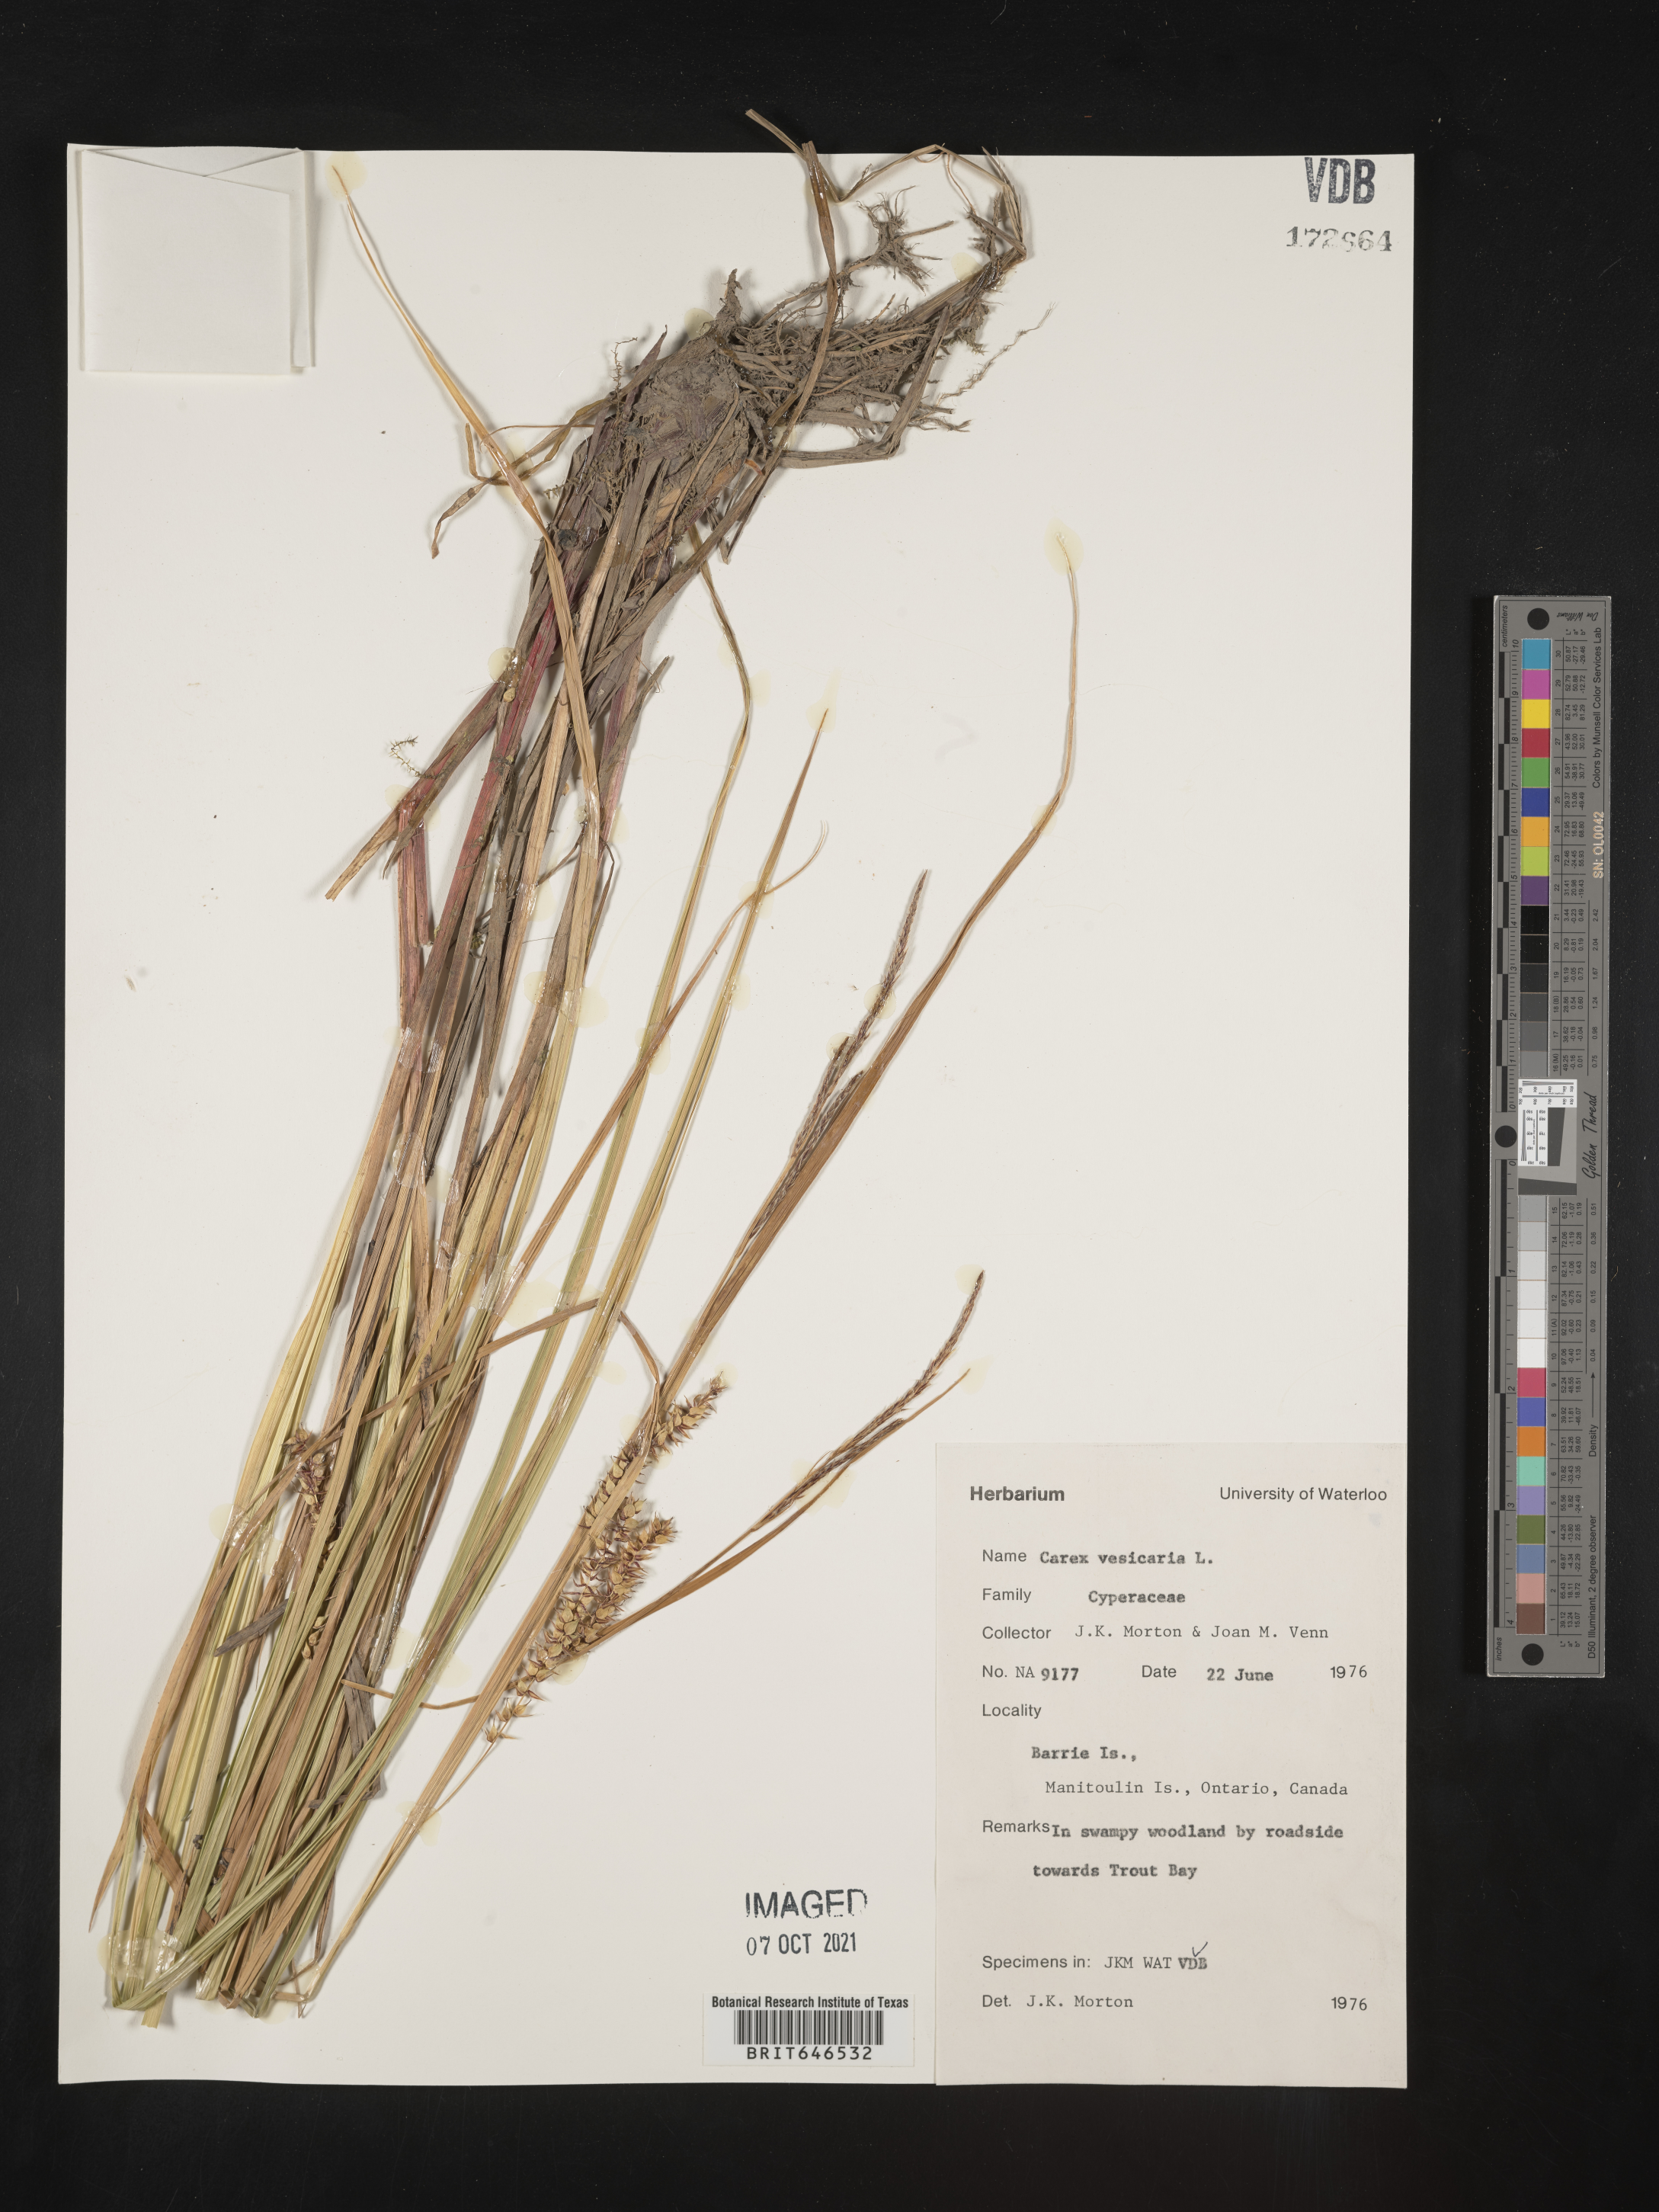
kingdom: Plantae
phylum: Tracheophyta
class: Liliopsida
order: Poales
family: Cyperaceae
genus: Carex
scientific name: Carex vesicaria
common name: Bladder-sedge
